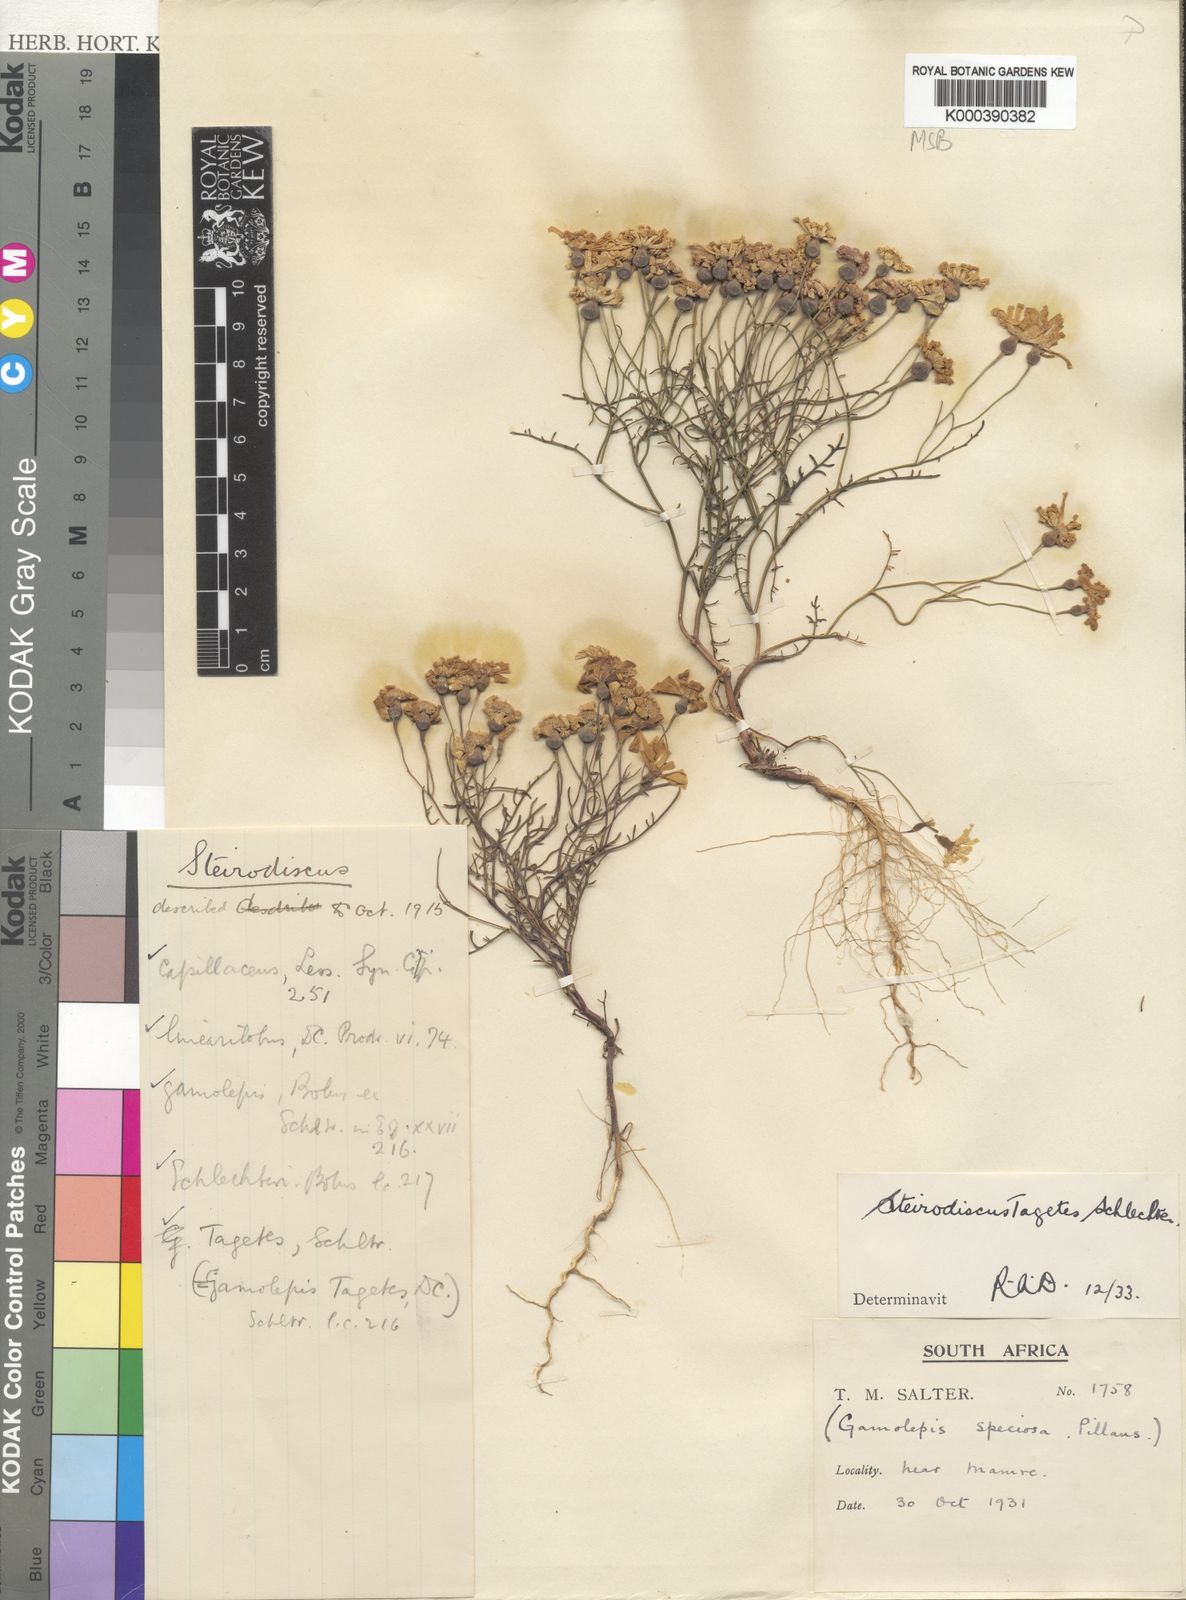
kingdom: Plantae
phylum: Tracheophyta
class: Magnoliopsida
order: Asterales
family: Asteraceae
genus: Steirodiscus
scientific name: Steirodiscus speciosus
